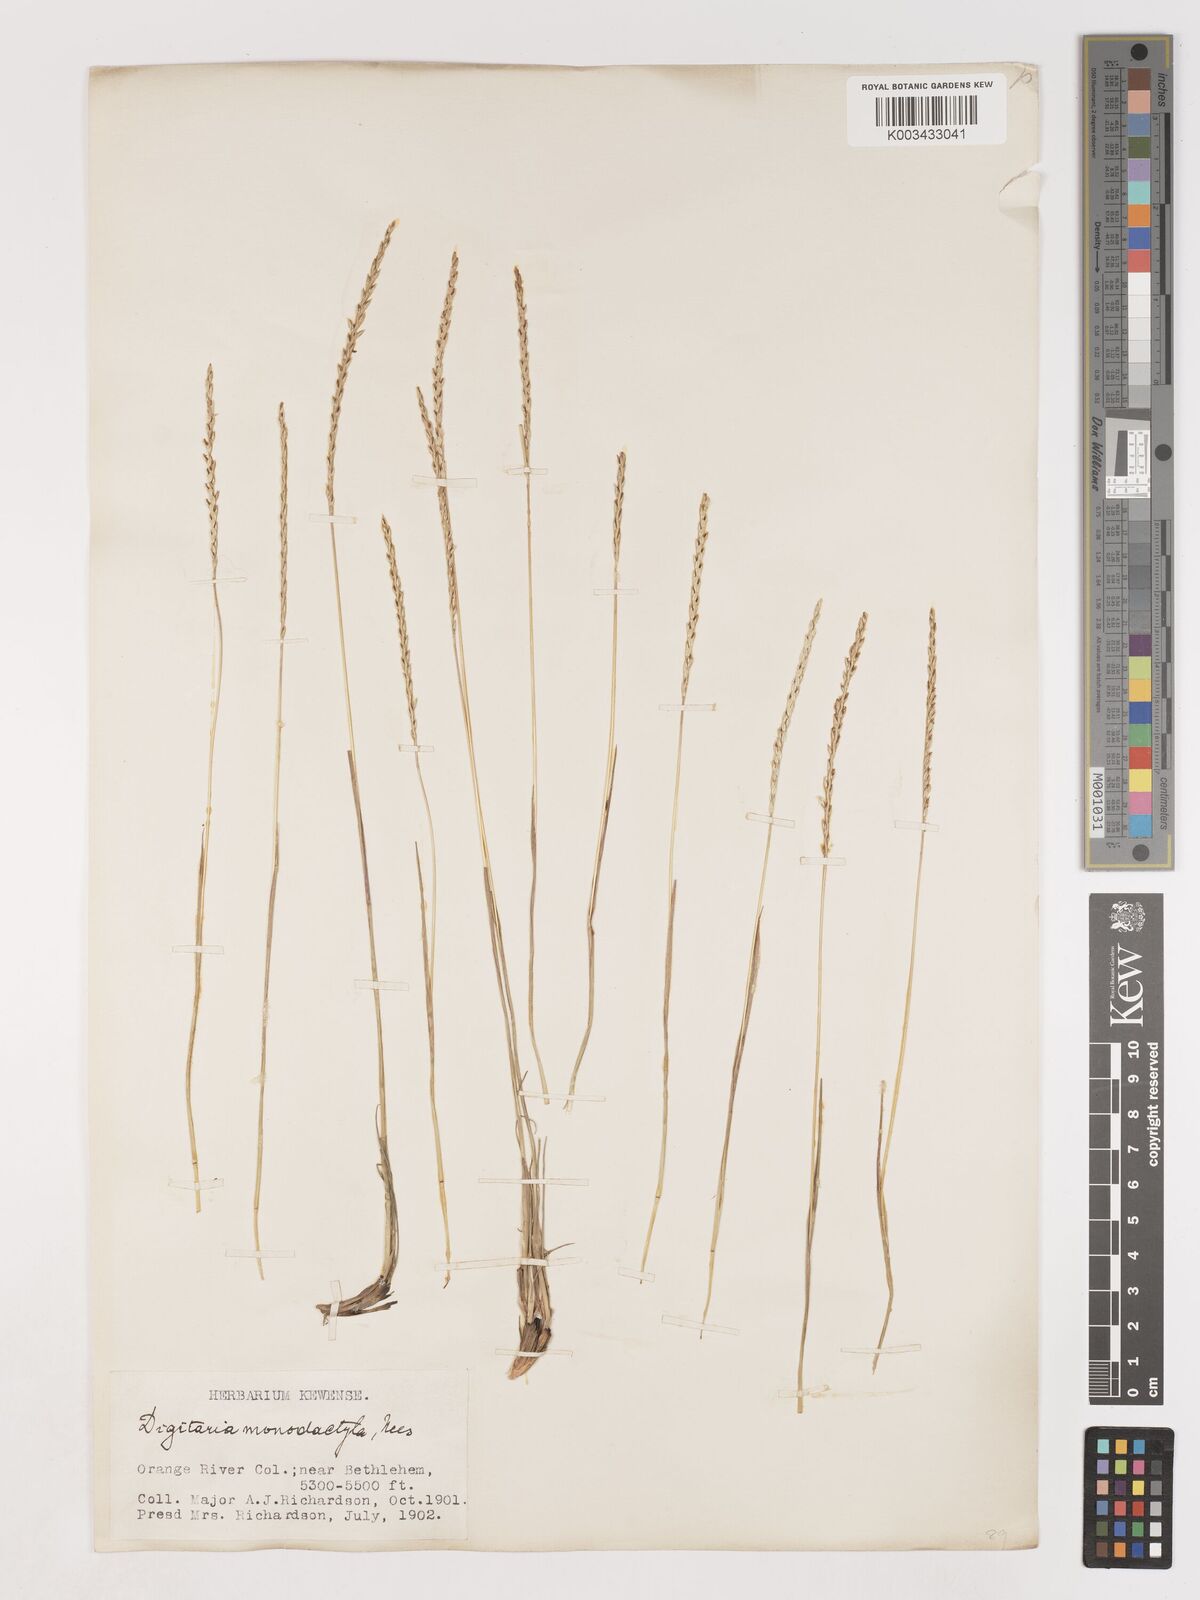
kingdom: Plantae
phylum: Tracheophyta
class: Liliopsida
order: Poales
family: Poaceae
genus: Digitaria
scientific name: Digitaria monodactyla
